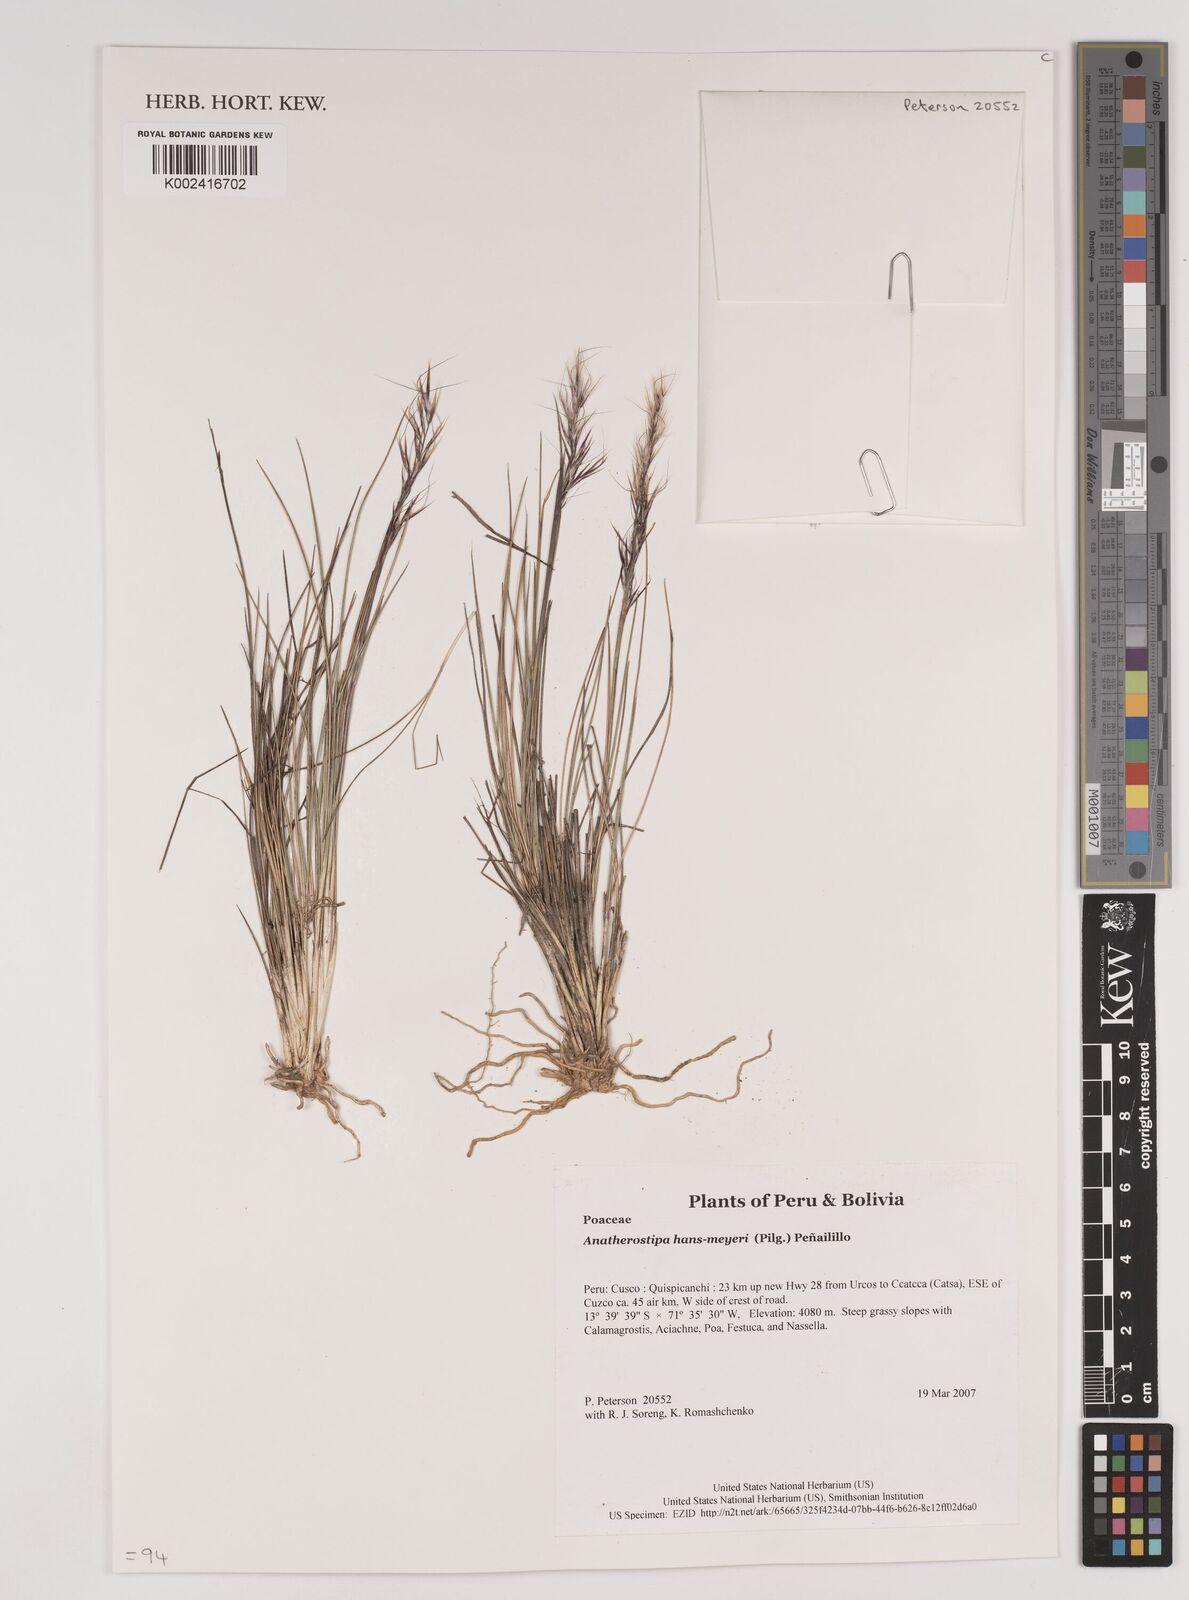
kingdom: Plantae
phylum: Tracheophyta
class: Liliopsida
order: Poales
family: Poaceae
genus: Stipa
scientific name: Stipa hans-meyeri
